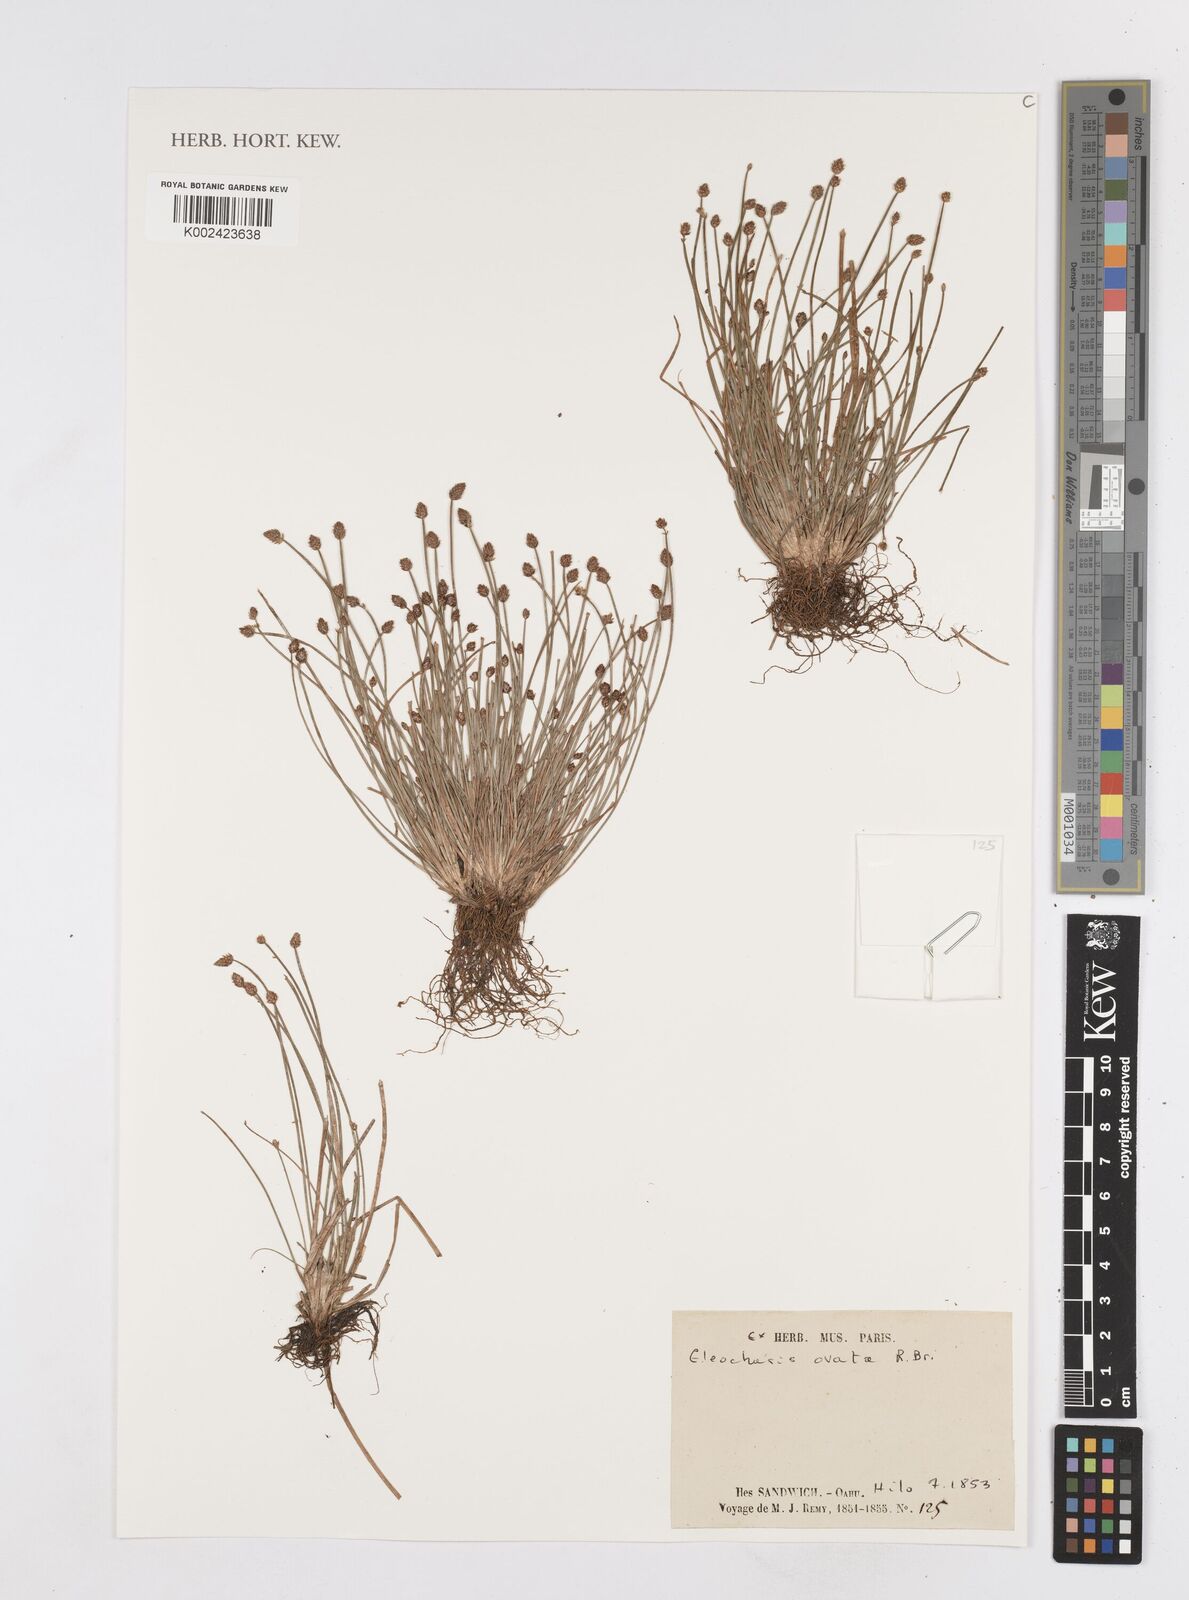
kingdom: Plantae
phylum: Tracheophyta
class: Liliopsida
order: Poales
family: Cyperaceae
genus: Eleocharis
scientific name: Eleocharis ovata
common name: Oval spike-rush
